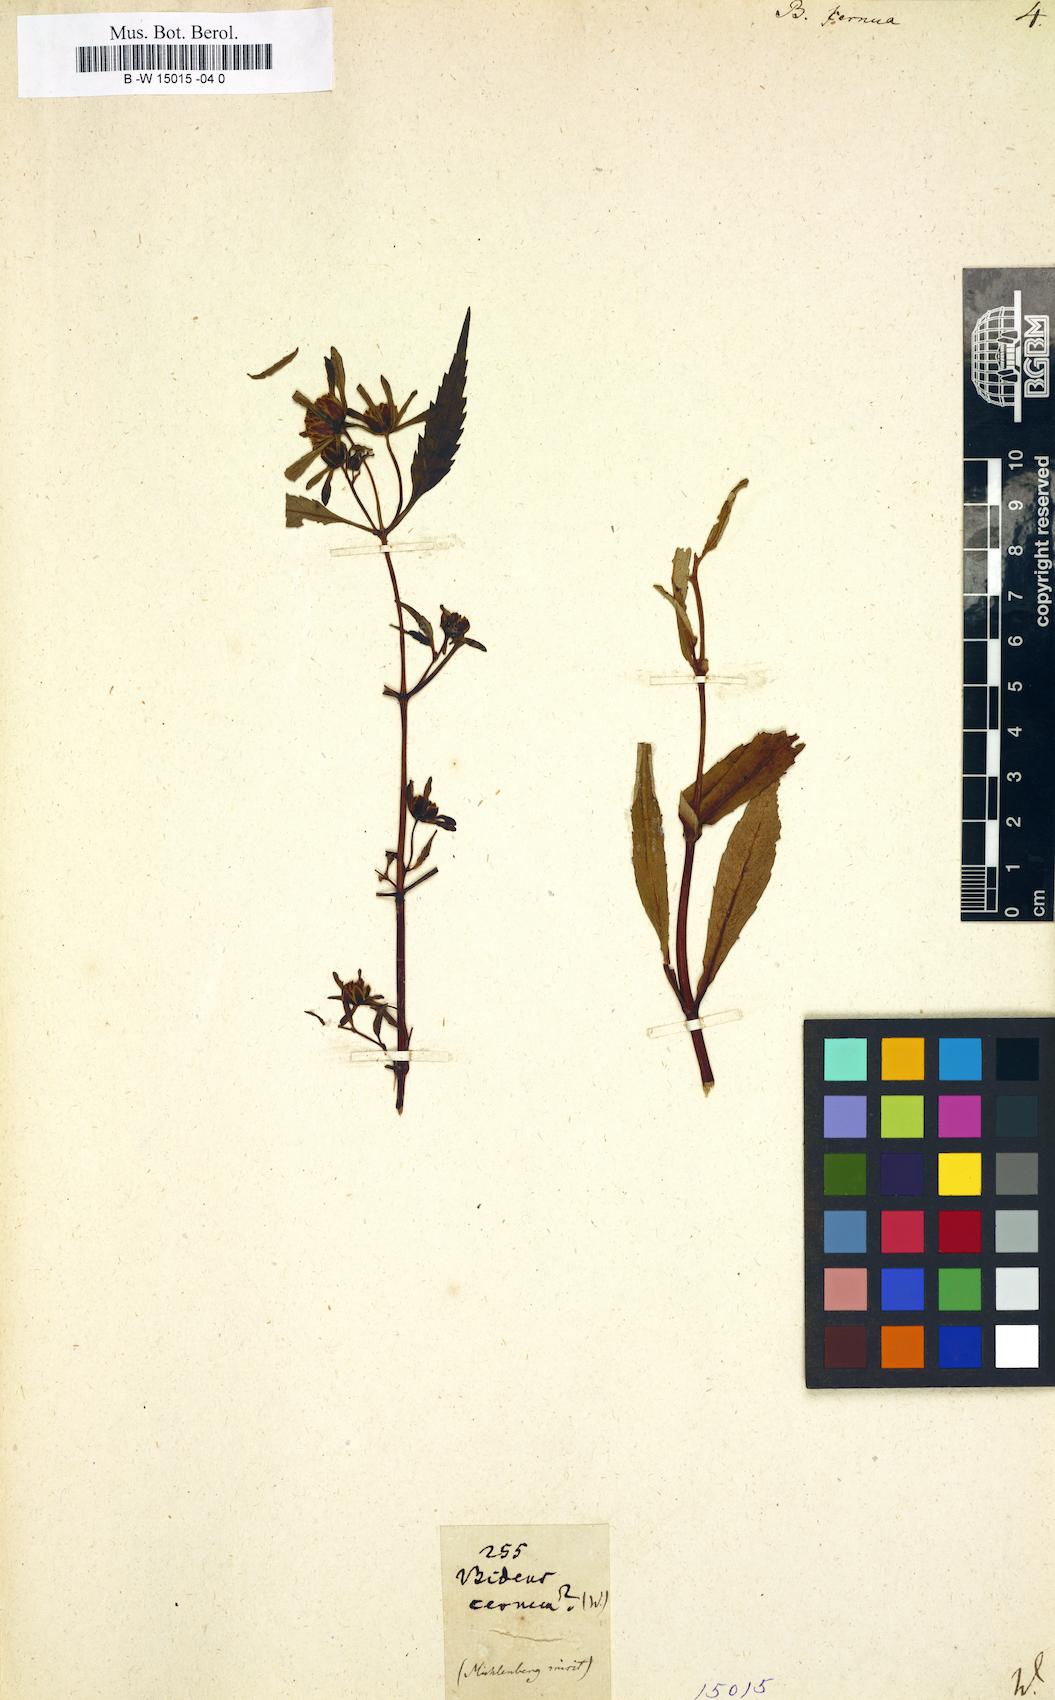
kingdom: Plantae
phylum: Tracheophyta
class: Magnoliopsida
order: Asterales
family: Asteraceae
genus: Bidens
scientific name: Bidens cernua
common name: Nodding bur-marigold
